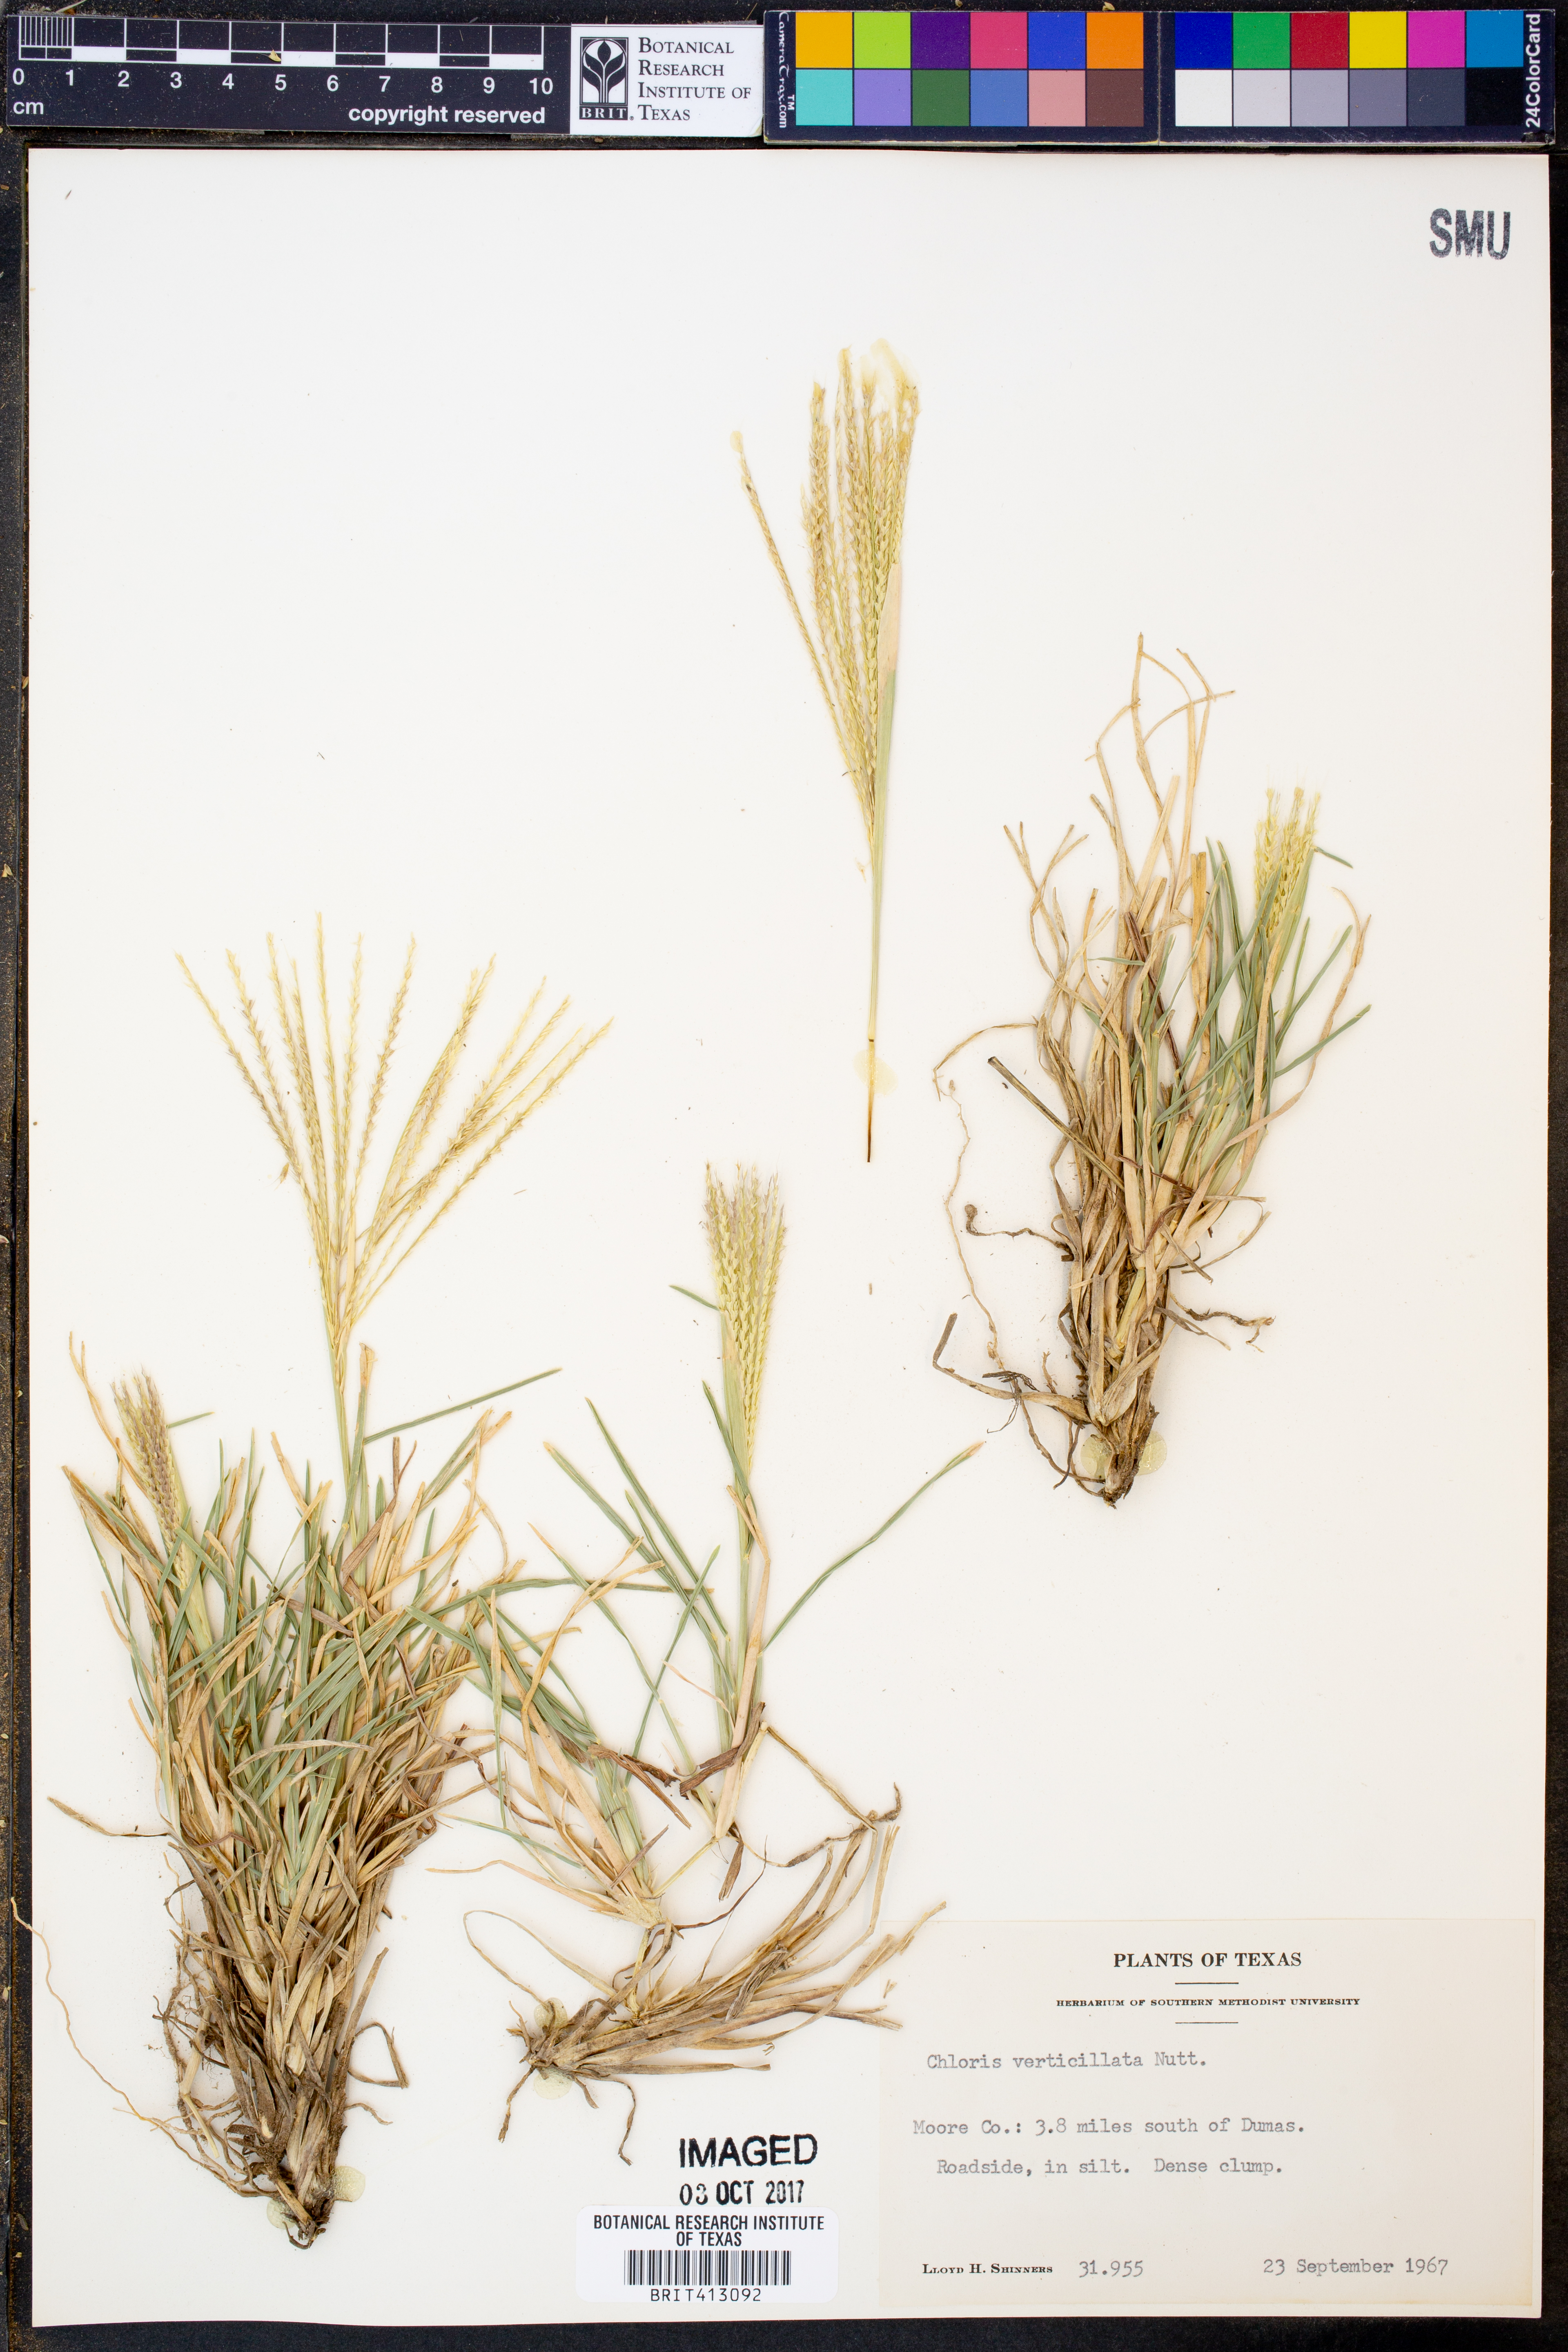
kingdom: Plantae
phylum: Tracheophyta
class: Liliopsida
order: Poales
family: Poaceae
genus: Chloris
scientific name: Chloris verticillata
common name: Tumble windmill grass
